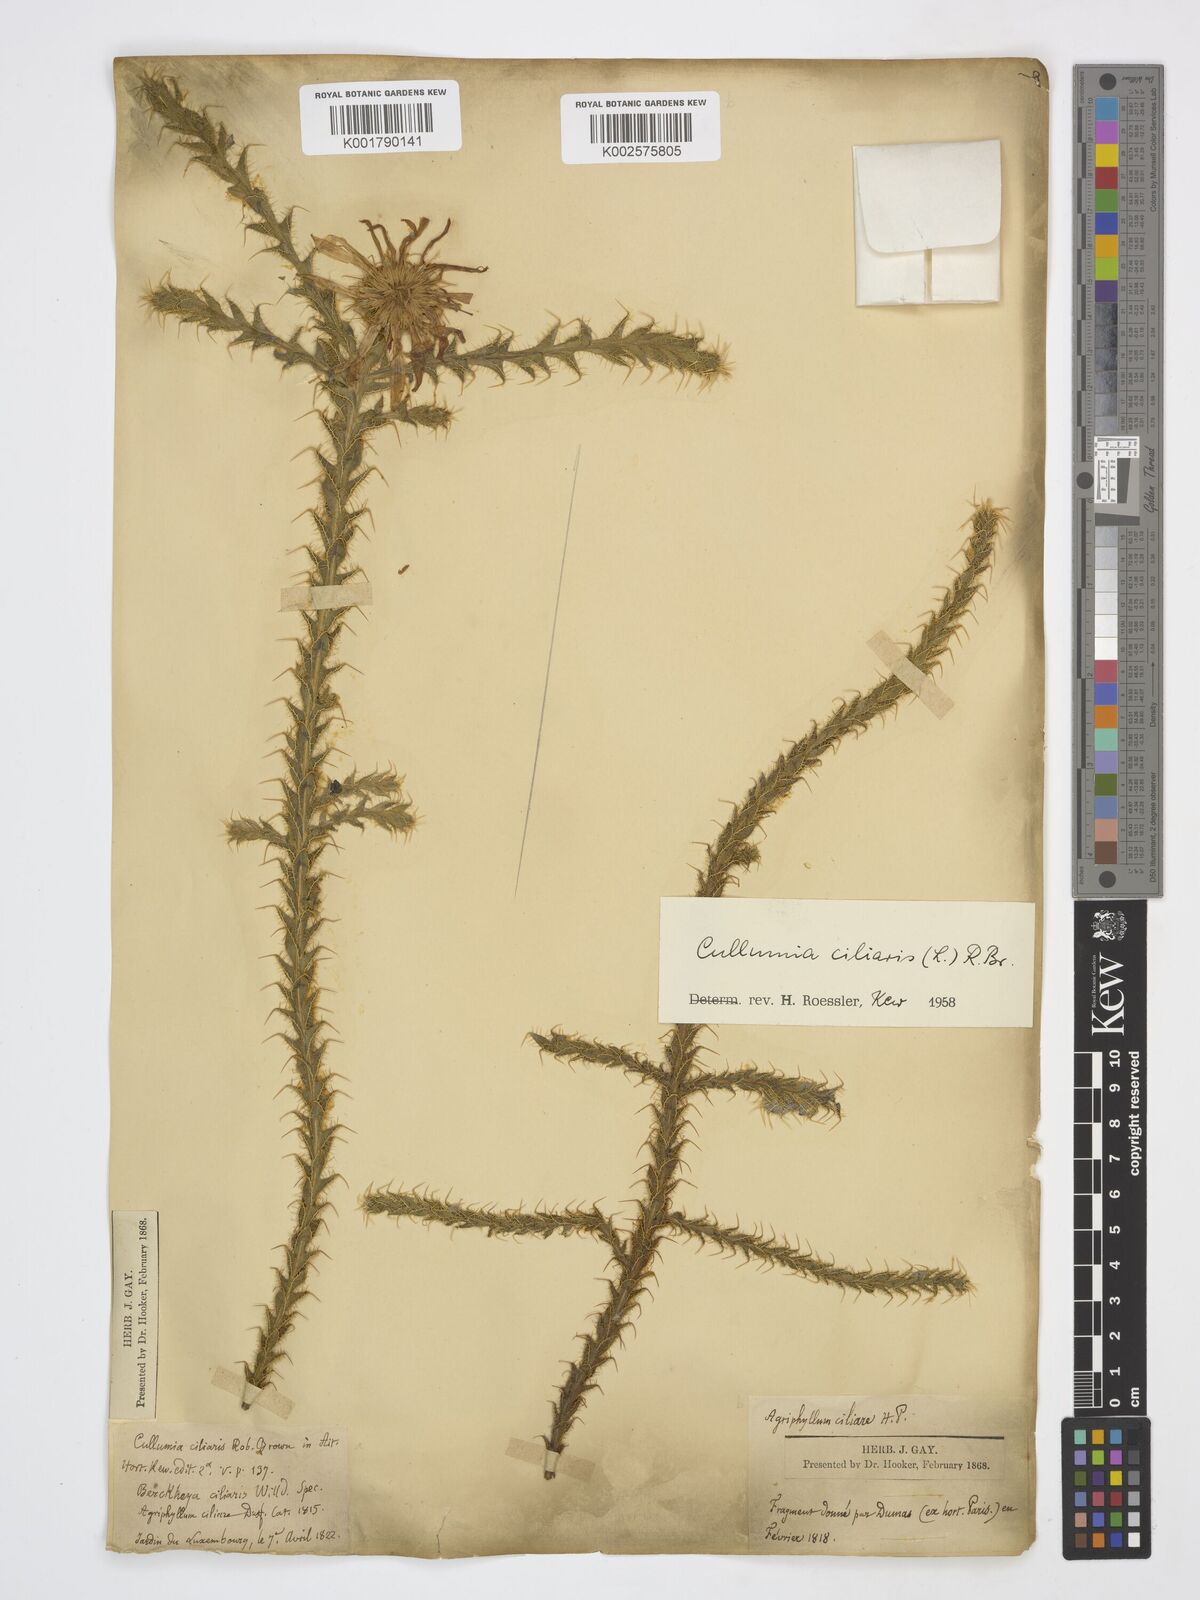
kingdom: Plantae
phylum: Tracheophyta
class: Magnoliopsida
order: Asterales
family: Asteraceae
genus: Cullumia
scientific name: Cullumia ciliaris
